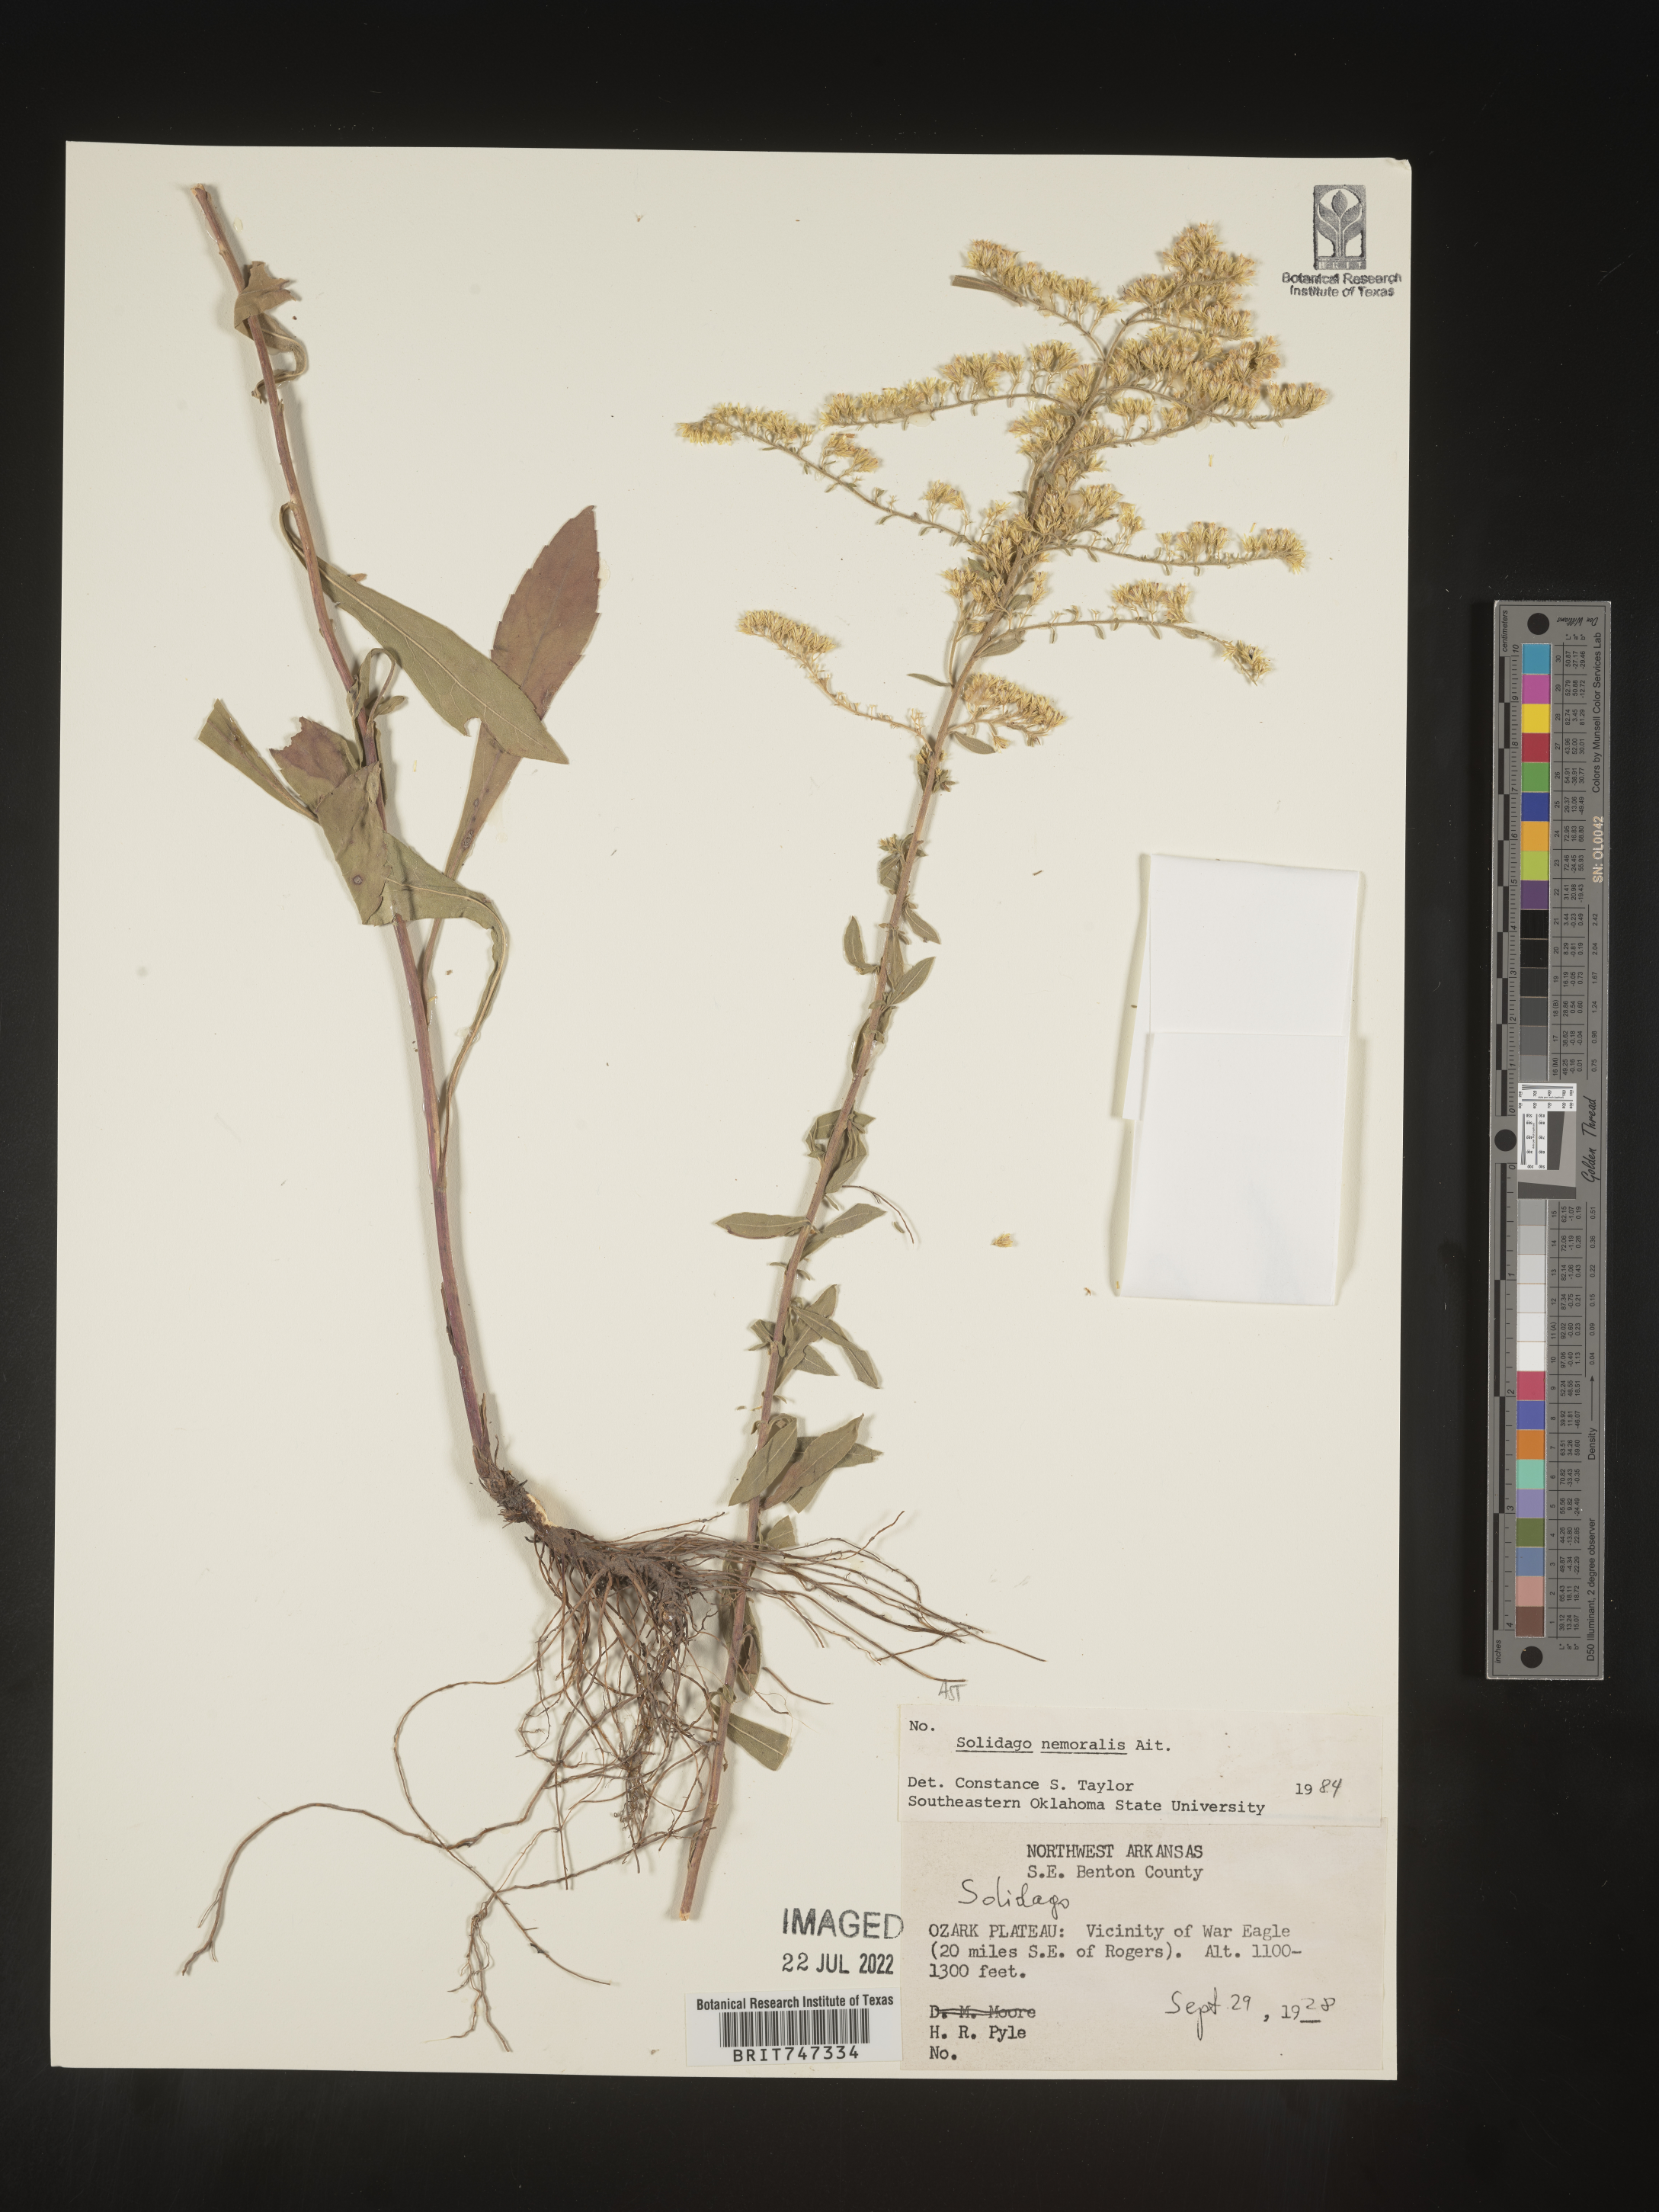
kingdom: Plantae
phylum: Tracheophyta
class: Magnoliopsida
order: Asterales
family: Asteraceae
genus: Solidago
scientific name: Solidago nemoralis
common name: Grey goldenrod
